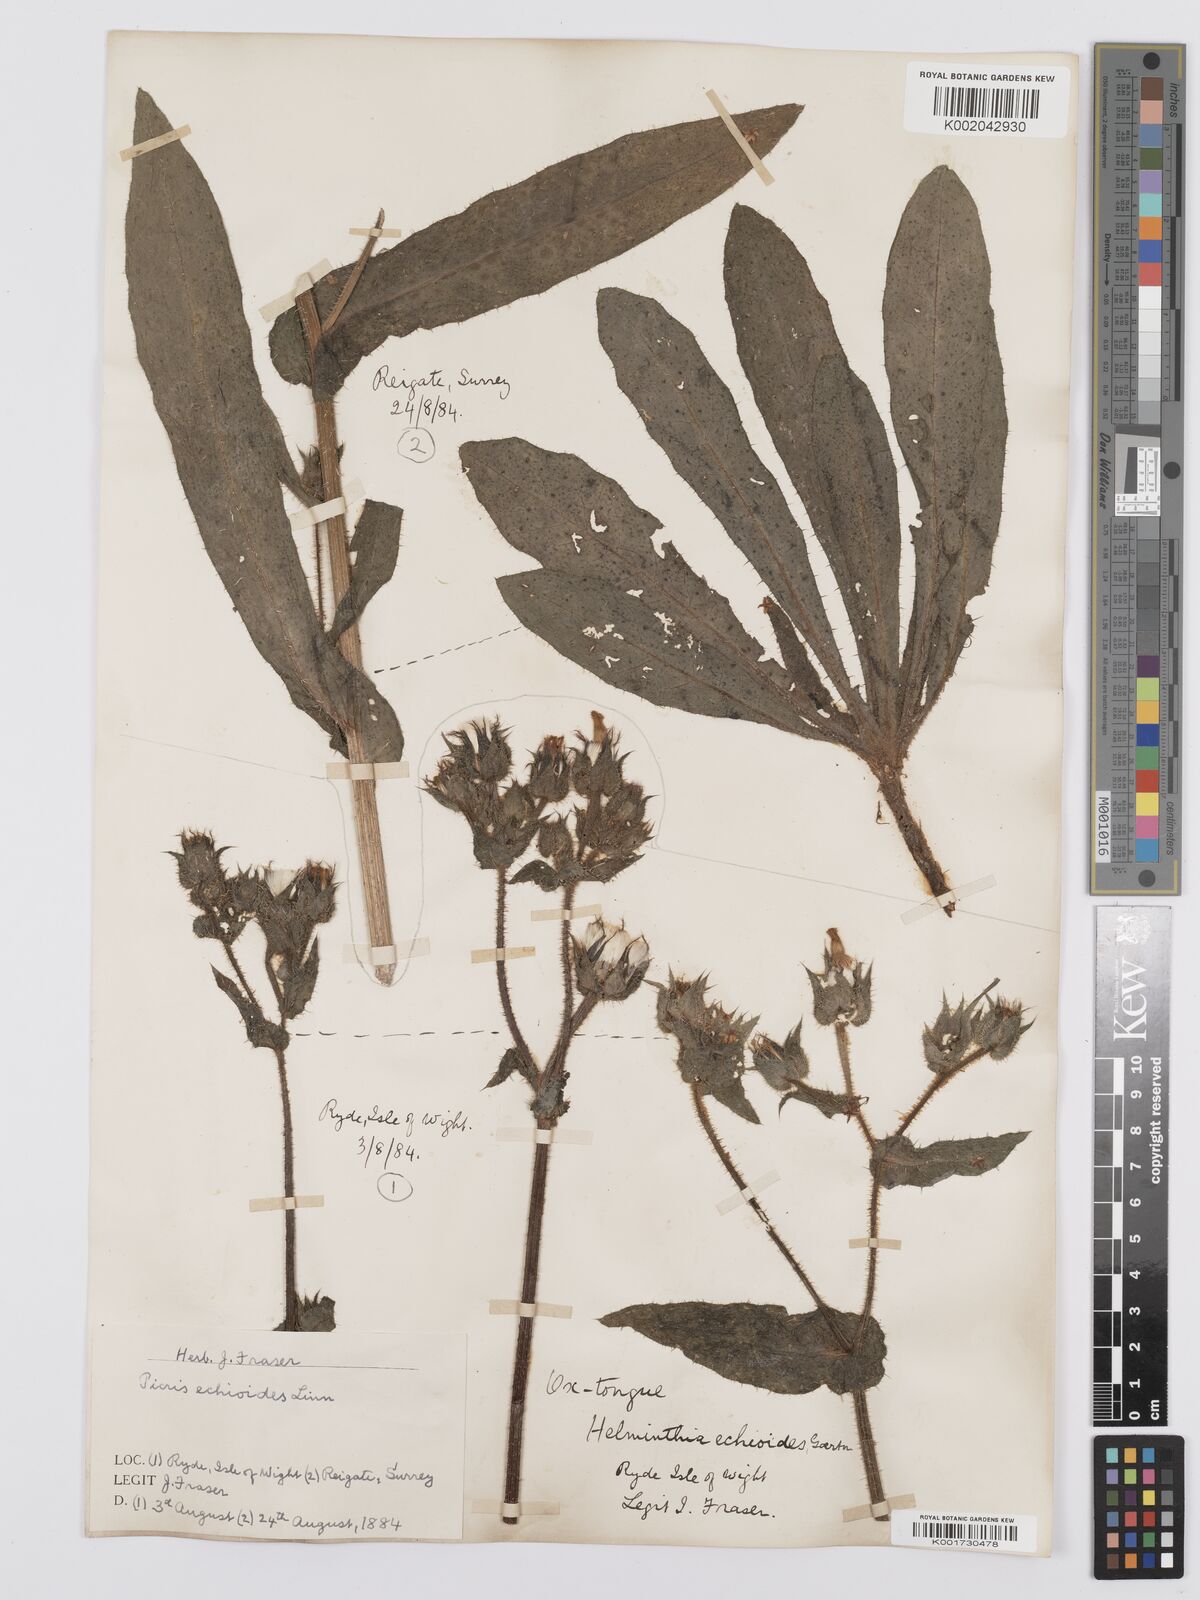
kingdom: Plantae
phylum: Tracheophyta
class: Magnoliopsida
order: Asterales
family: Asteraceae
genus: Helminthotheca
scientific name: Helminthotheca echioides
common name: Ox-tongue
